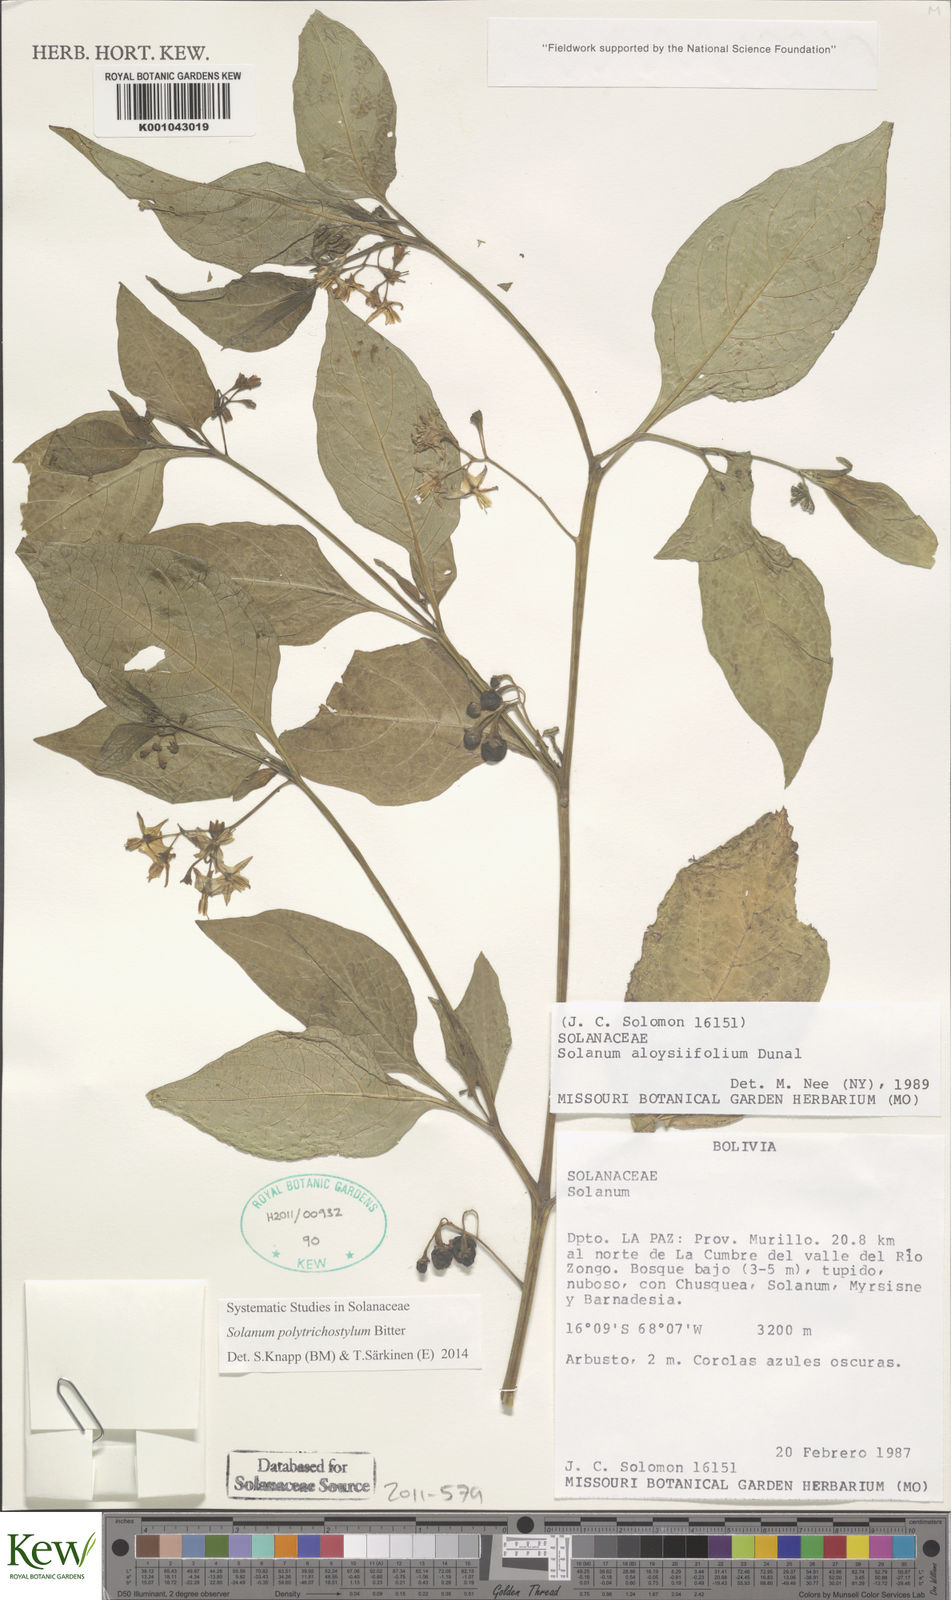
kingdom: Plantae
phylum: Tracheophyta
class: Magnoliopsida
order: Solanales
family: Solanaceae
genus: Solanum
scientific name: Solanum
